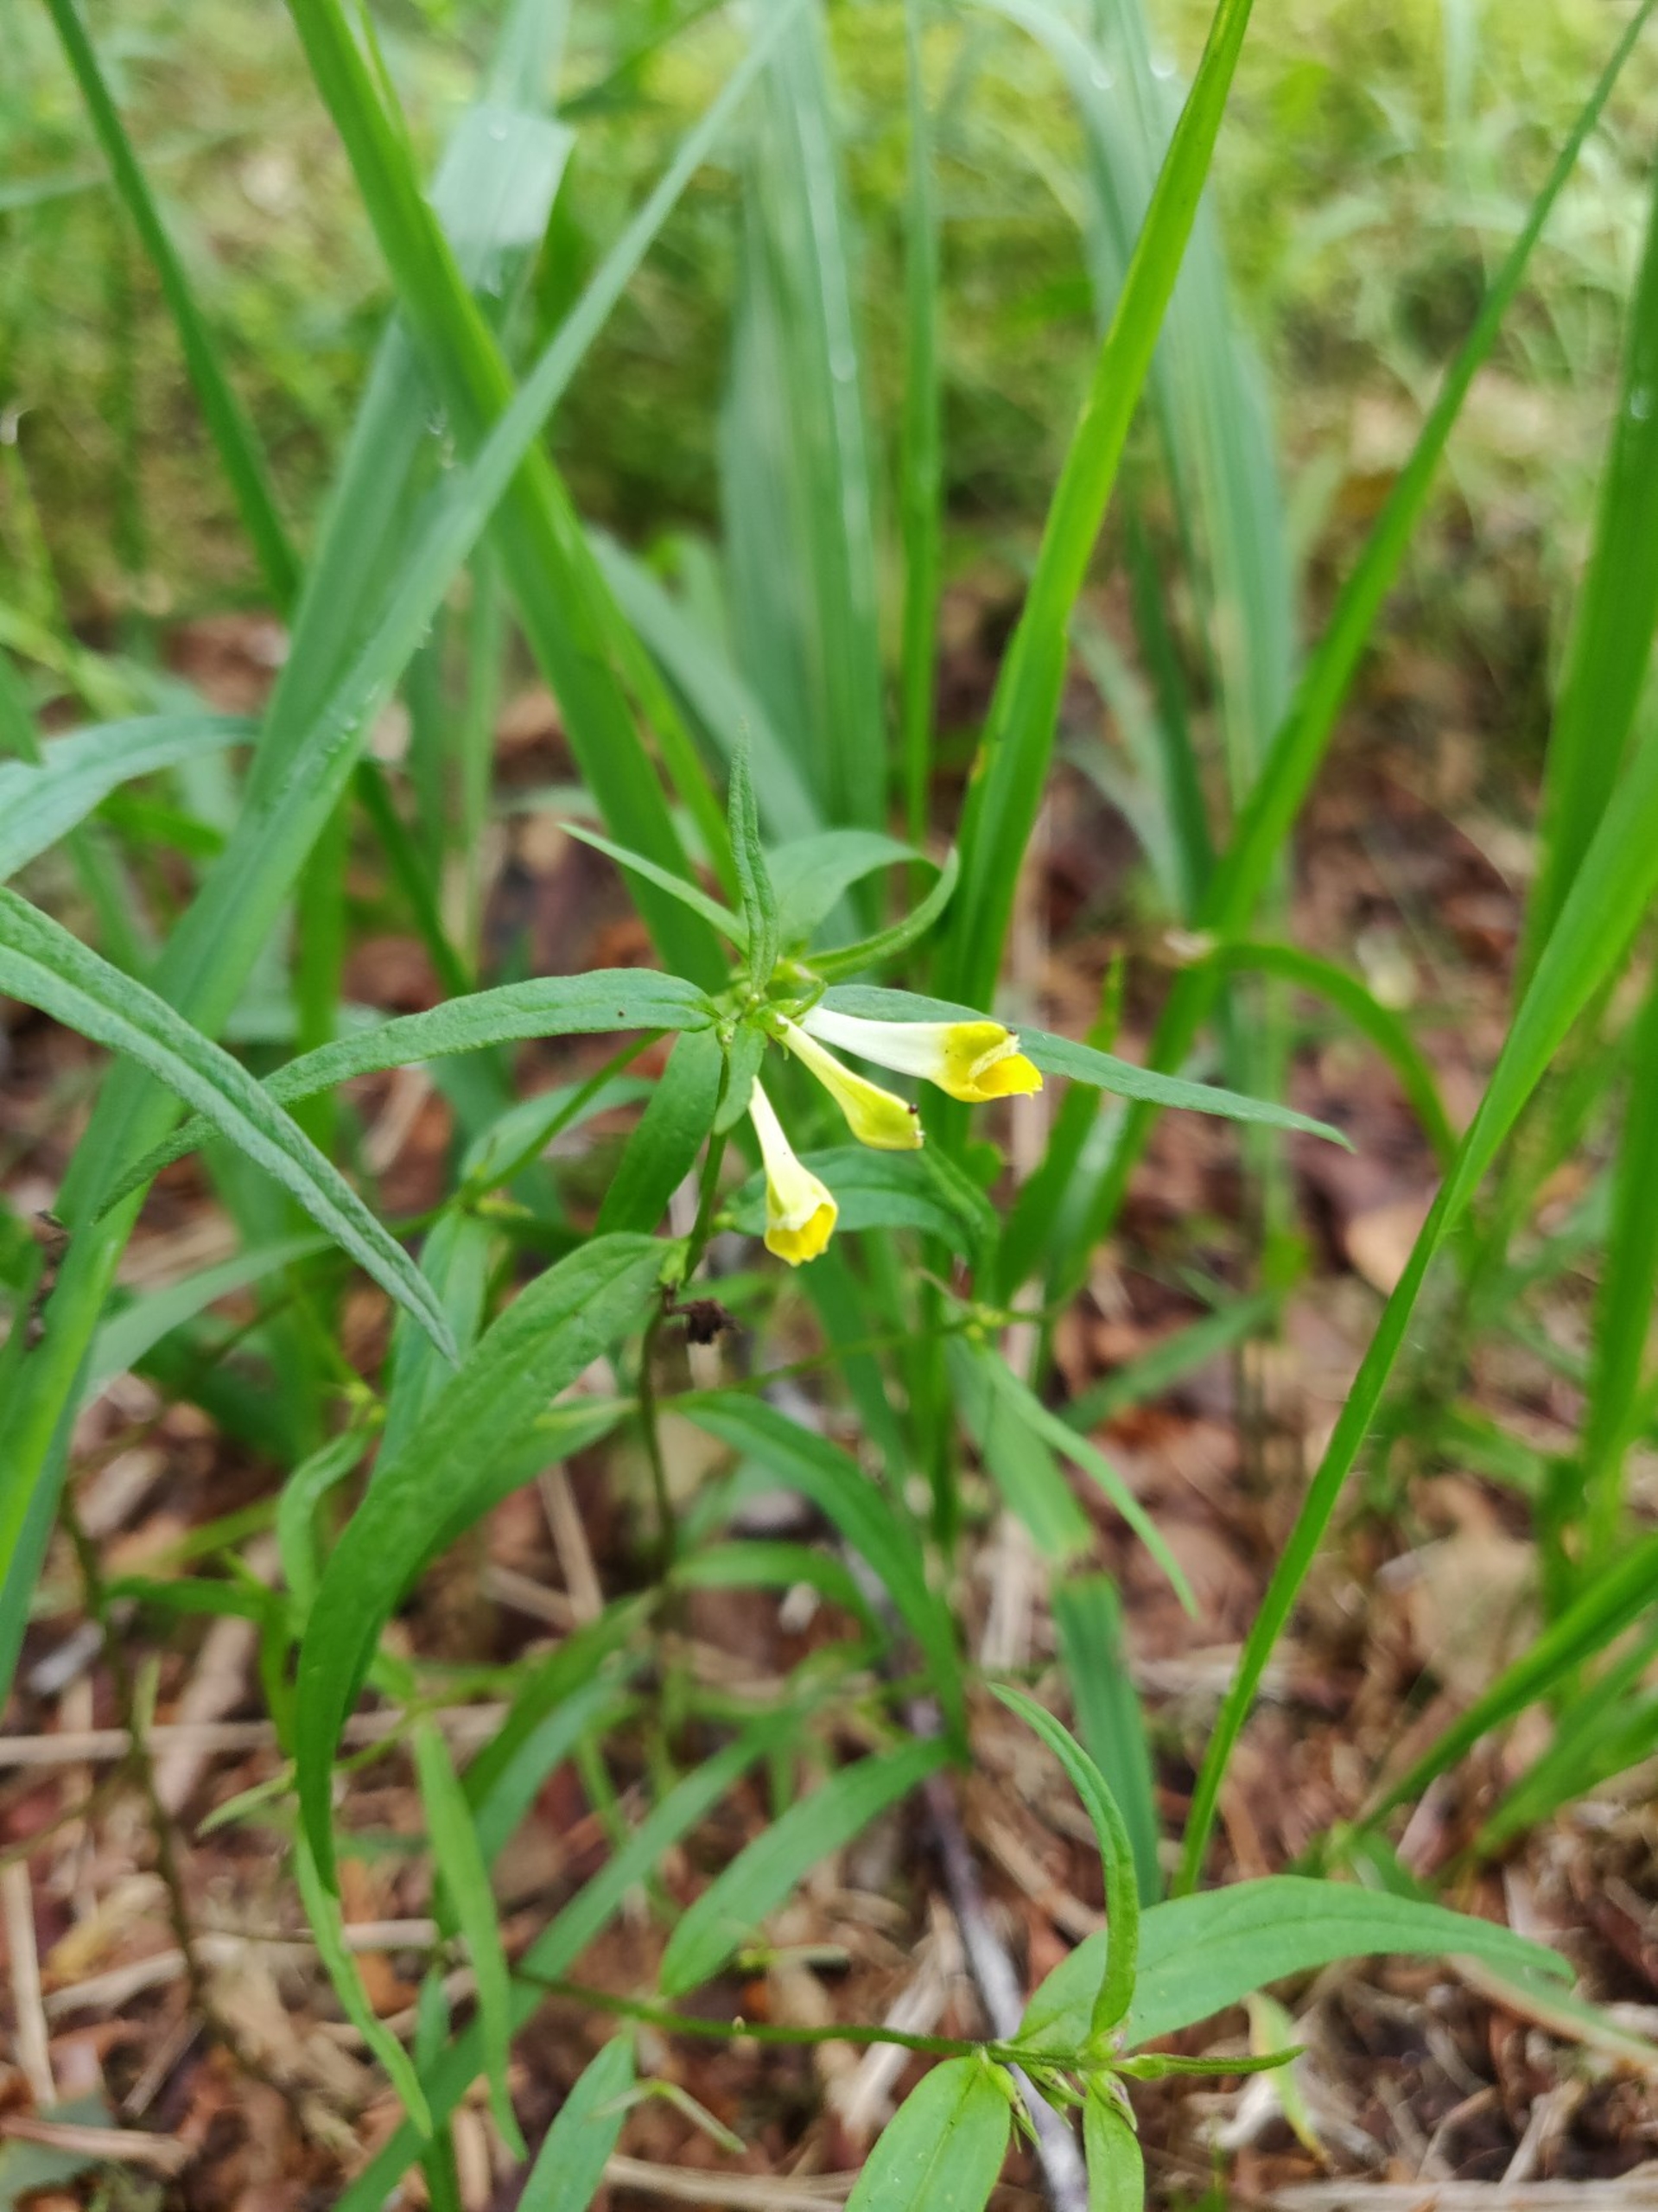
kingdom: Plantae
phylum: Tracheophyta
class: Magnoliopsida
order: Lamiales
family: Orobanchaceae
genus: Melampyrum
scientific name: Melampyrum pratense
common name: Almindelig kohvede
